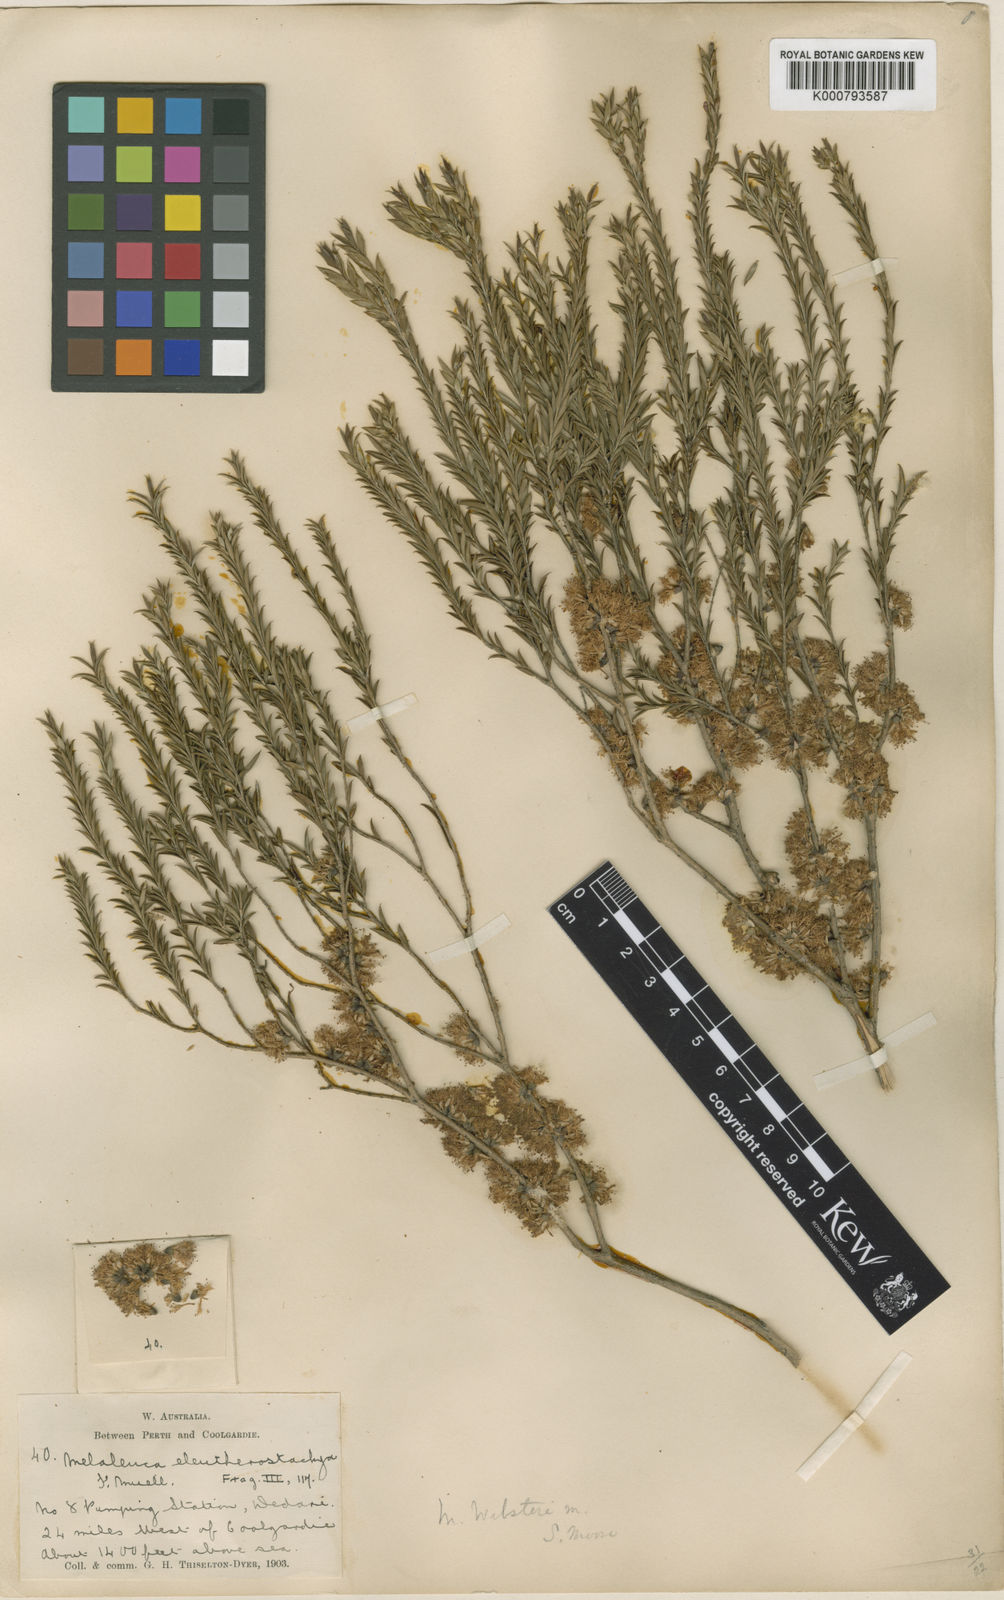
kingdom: Plantae
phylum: Tracheophyta
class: Magnoliopsida
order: Myrtales
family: Myrtaceae
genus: Melaleuca
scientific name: Melaleuca acuminata
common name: Mallee honey myrtle
